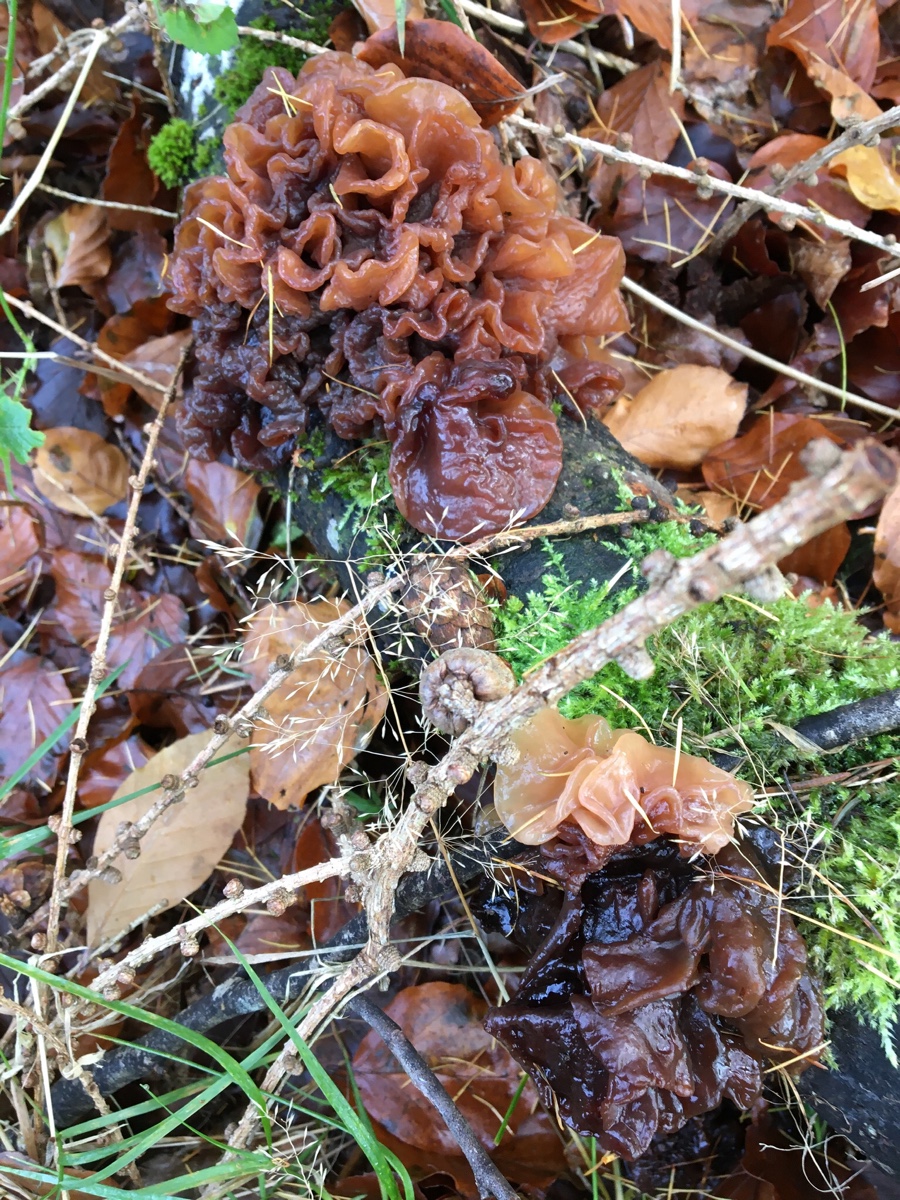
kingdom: Fungi
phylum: Basidiomycota
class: Tremellomycetes
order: Tremellales
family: Tremellaceae
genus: Phaeotremella
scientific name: Phaeotremella frondosa
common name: kæmpe-bævresvamp
